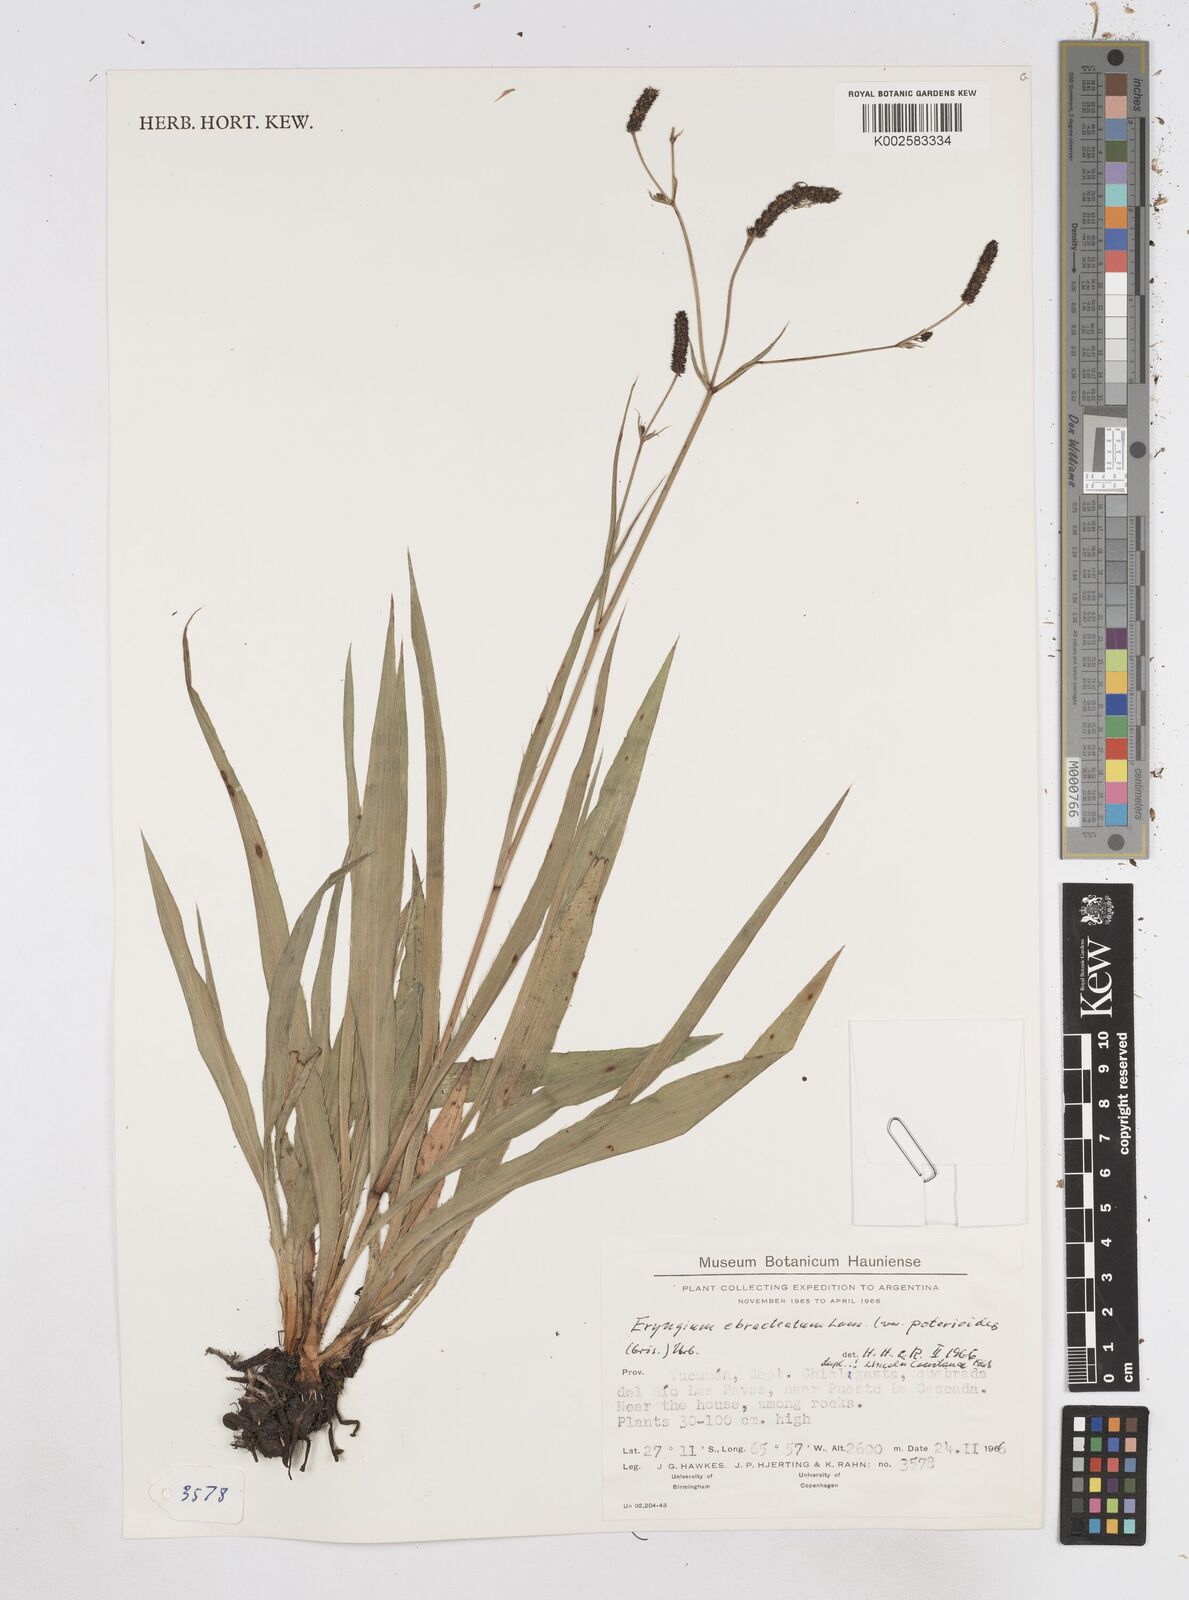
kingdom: Plantae
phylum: Tracheophyta
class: Magnoliopsida
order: Apiales
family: Apiaceae
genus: Eryngium
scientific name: Eryngium ebracteatum
